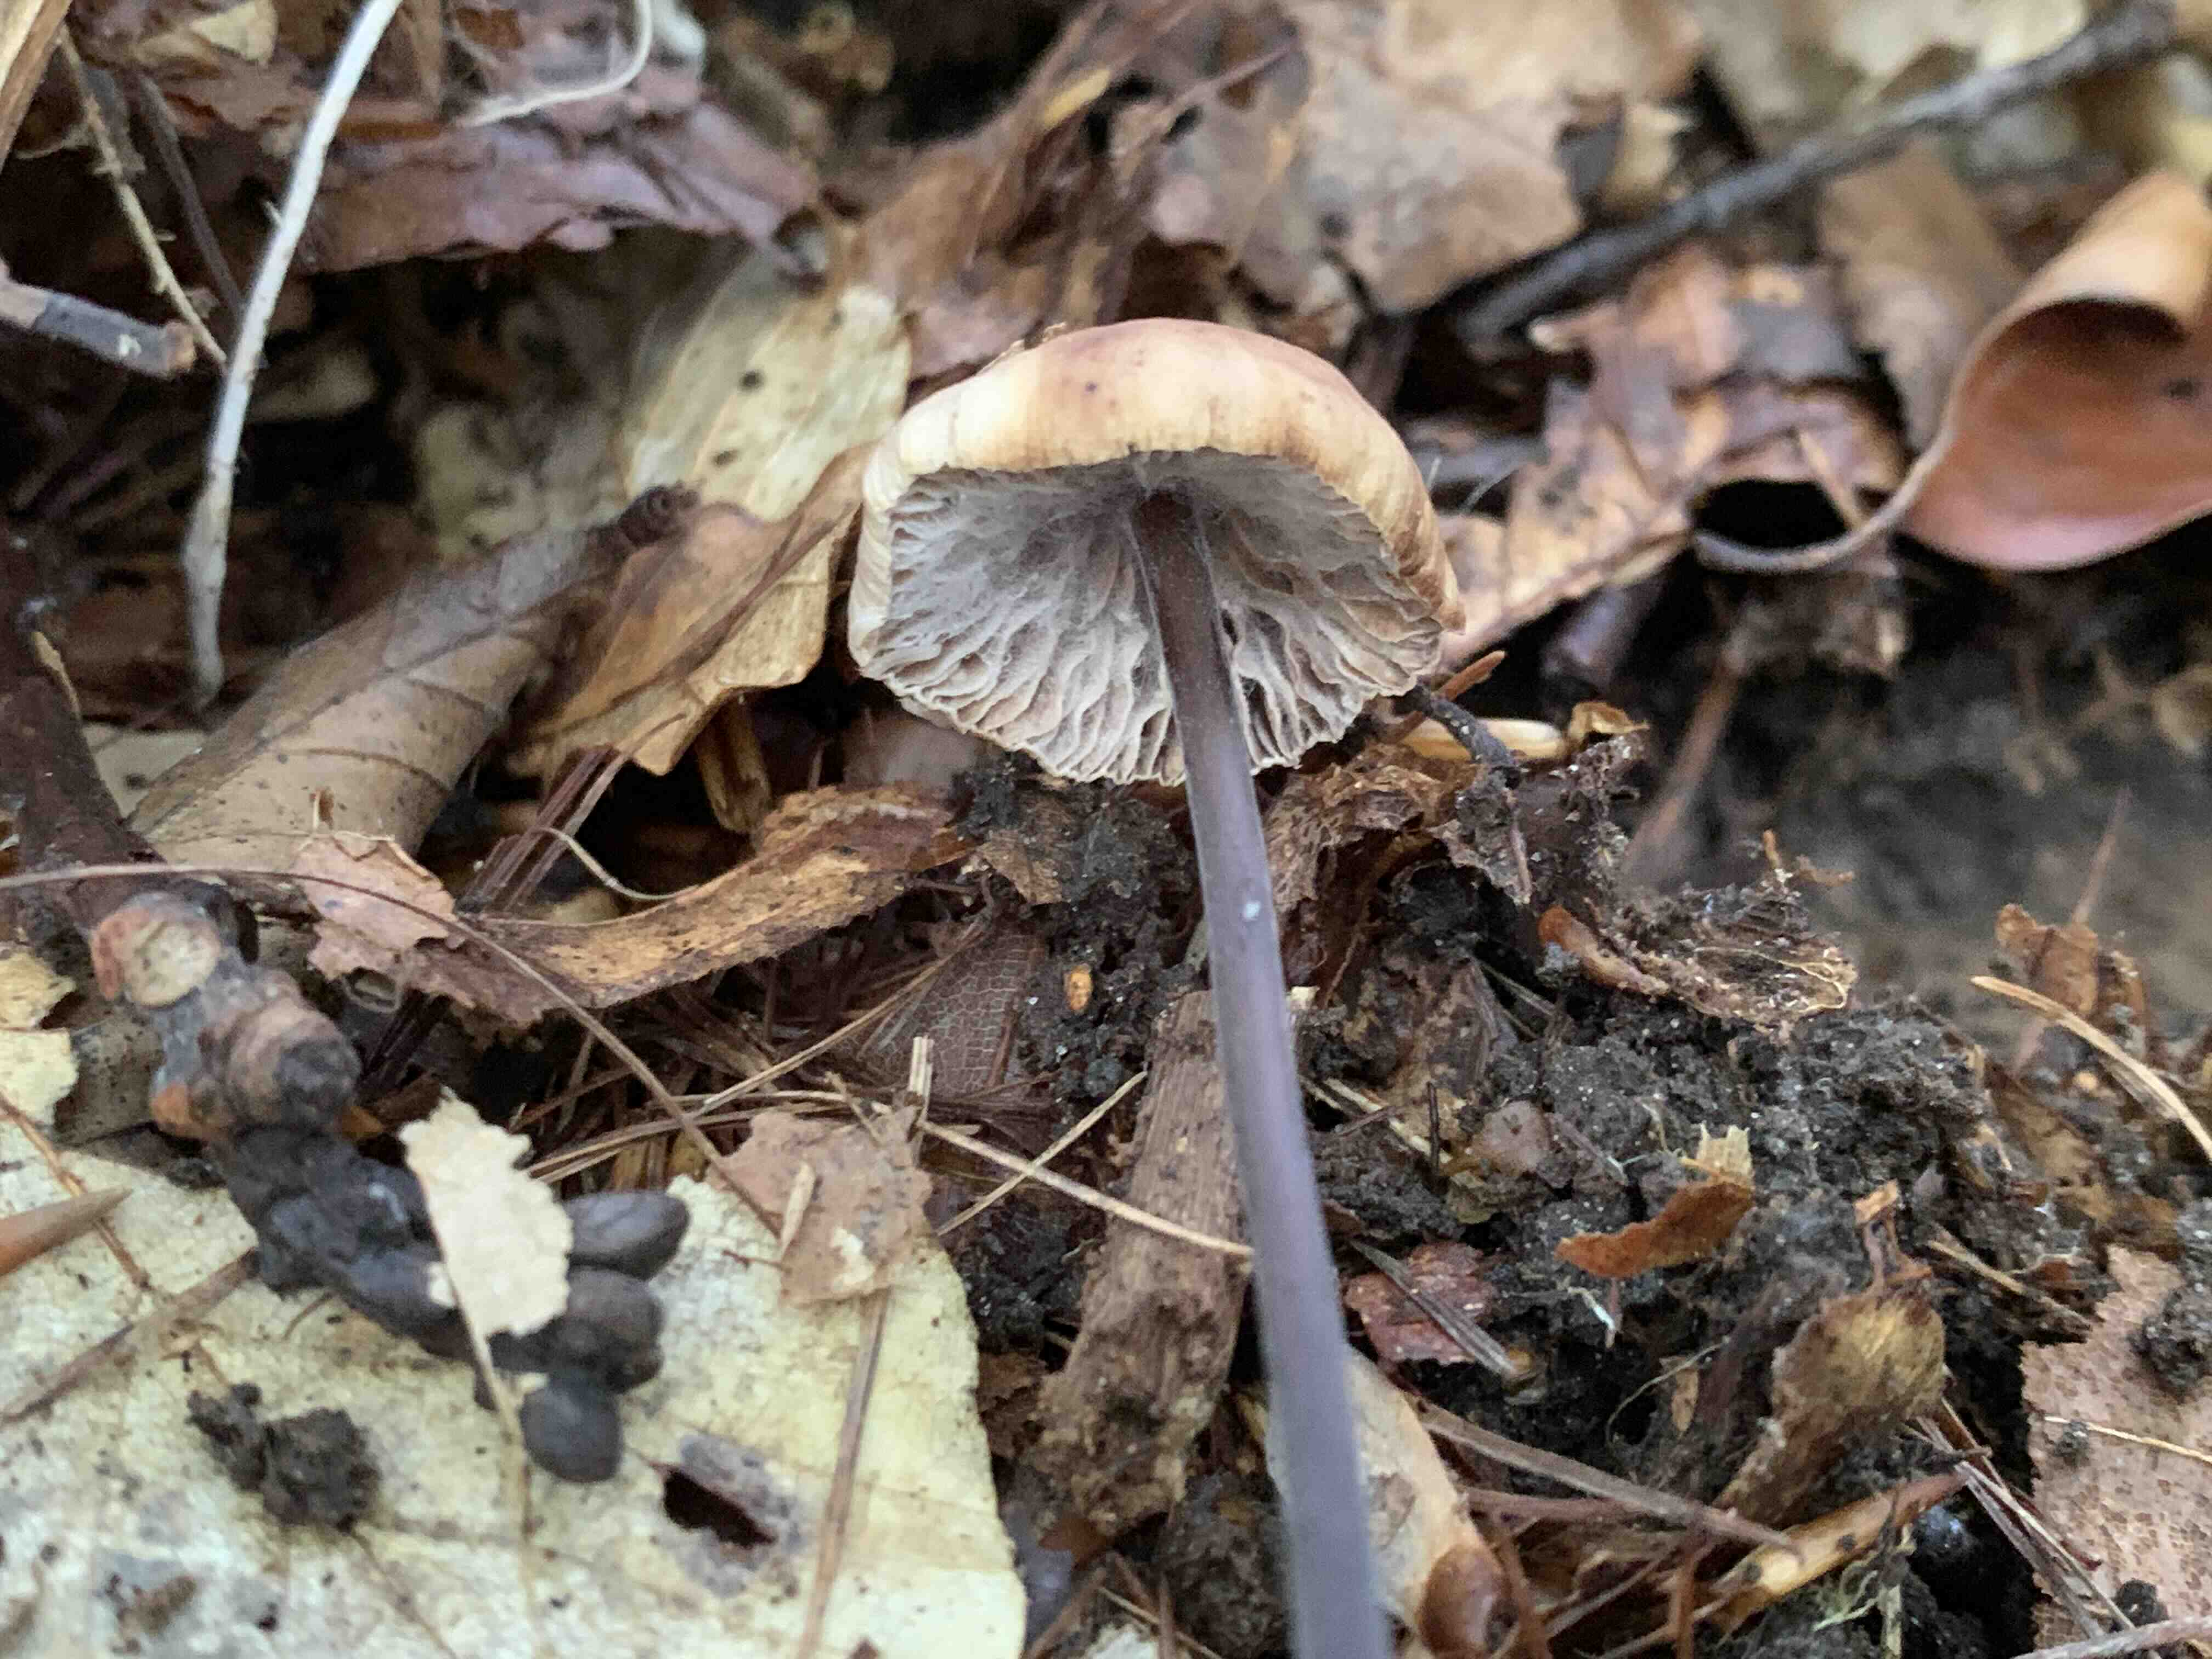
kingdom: Fungi
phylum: Basidiomycota
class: Agaricomycetes
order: Agaricales
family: Omphalotaceae
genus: Mycetinis
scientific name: Mycetinis alliaceus
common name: stor løghat
